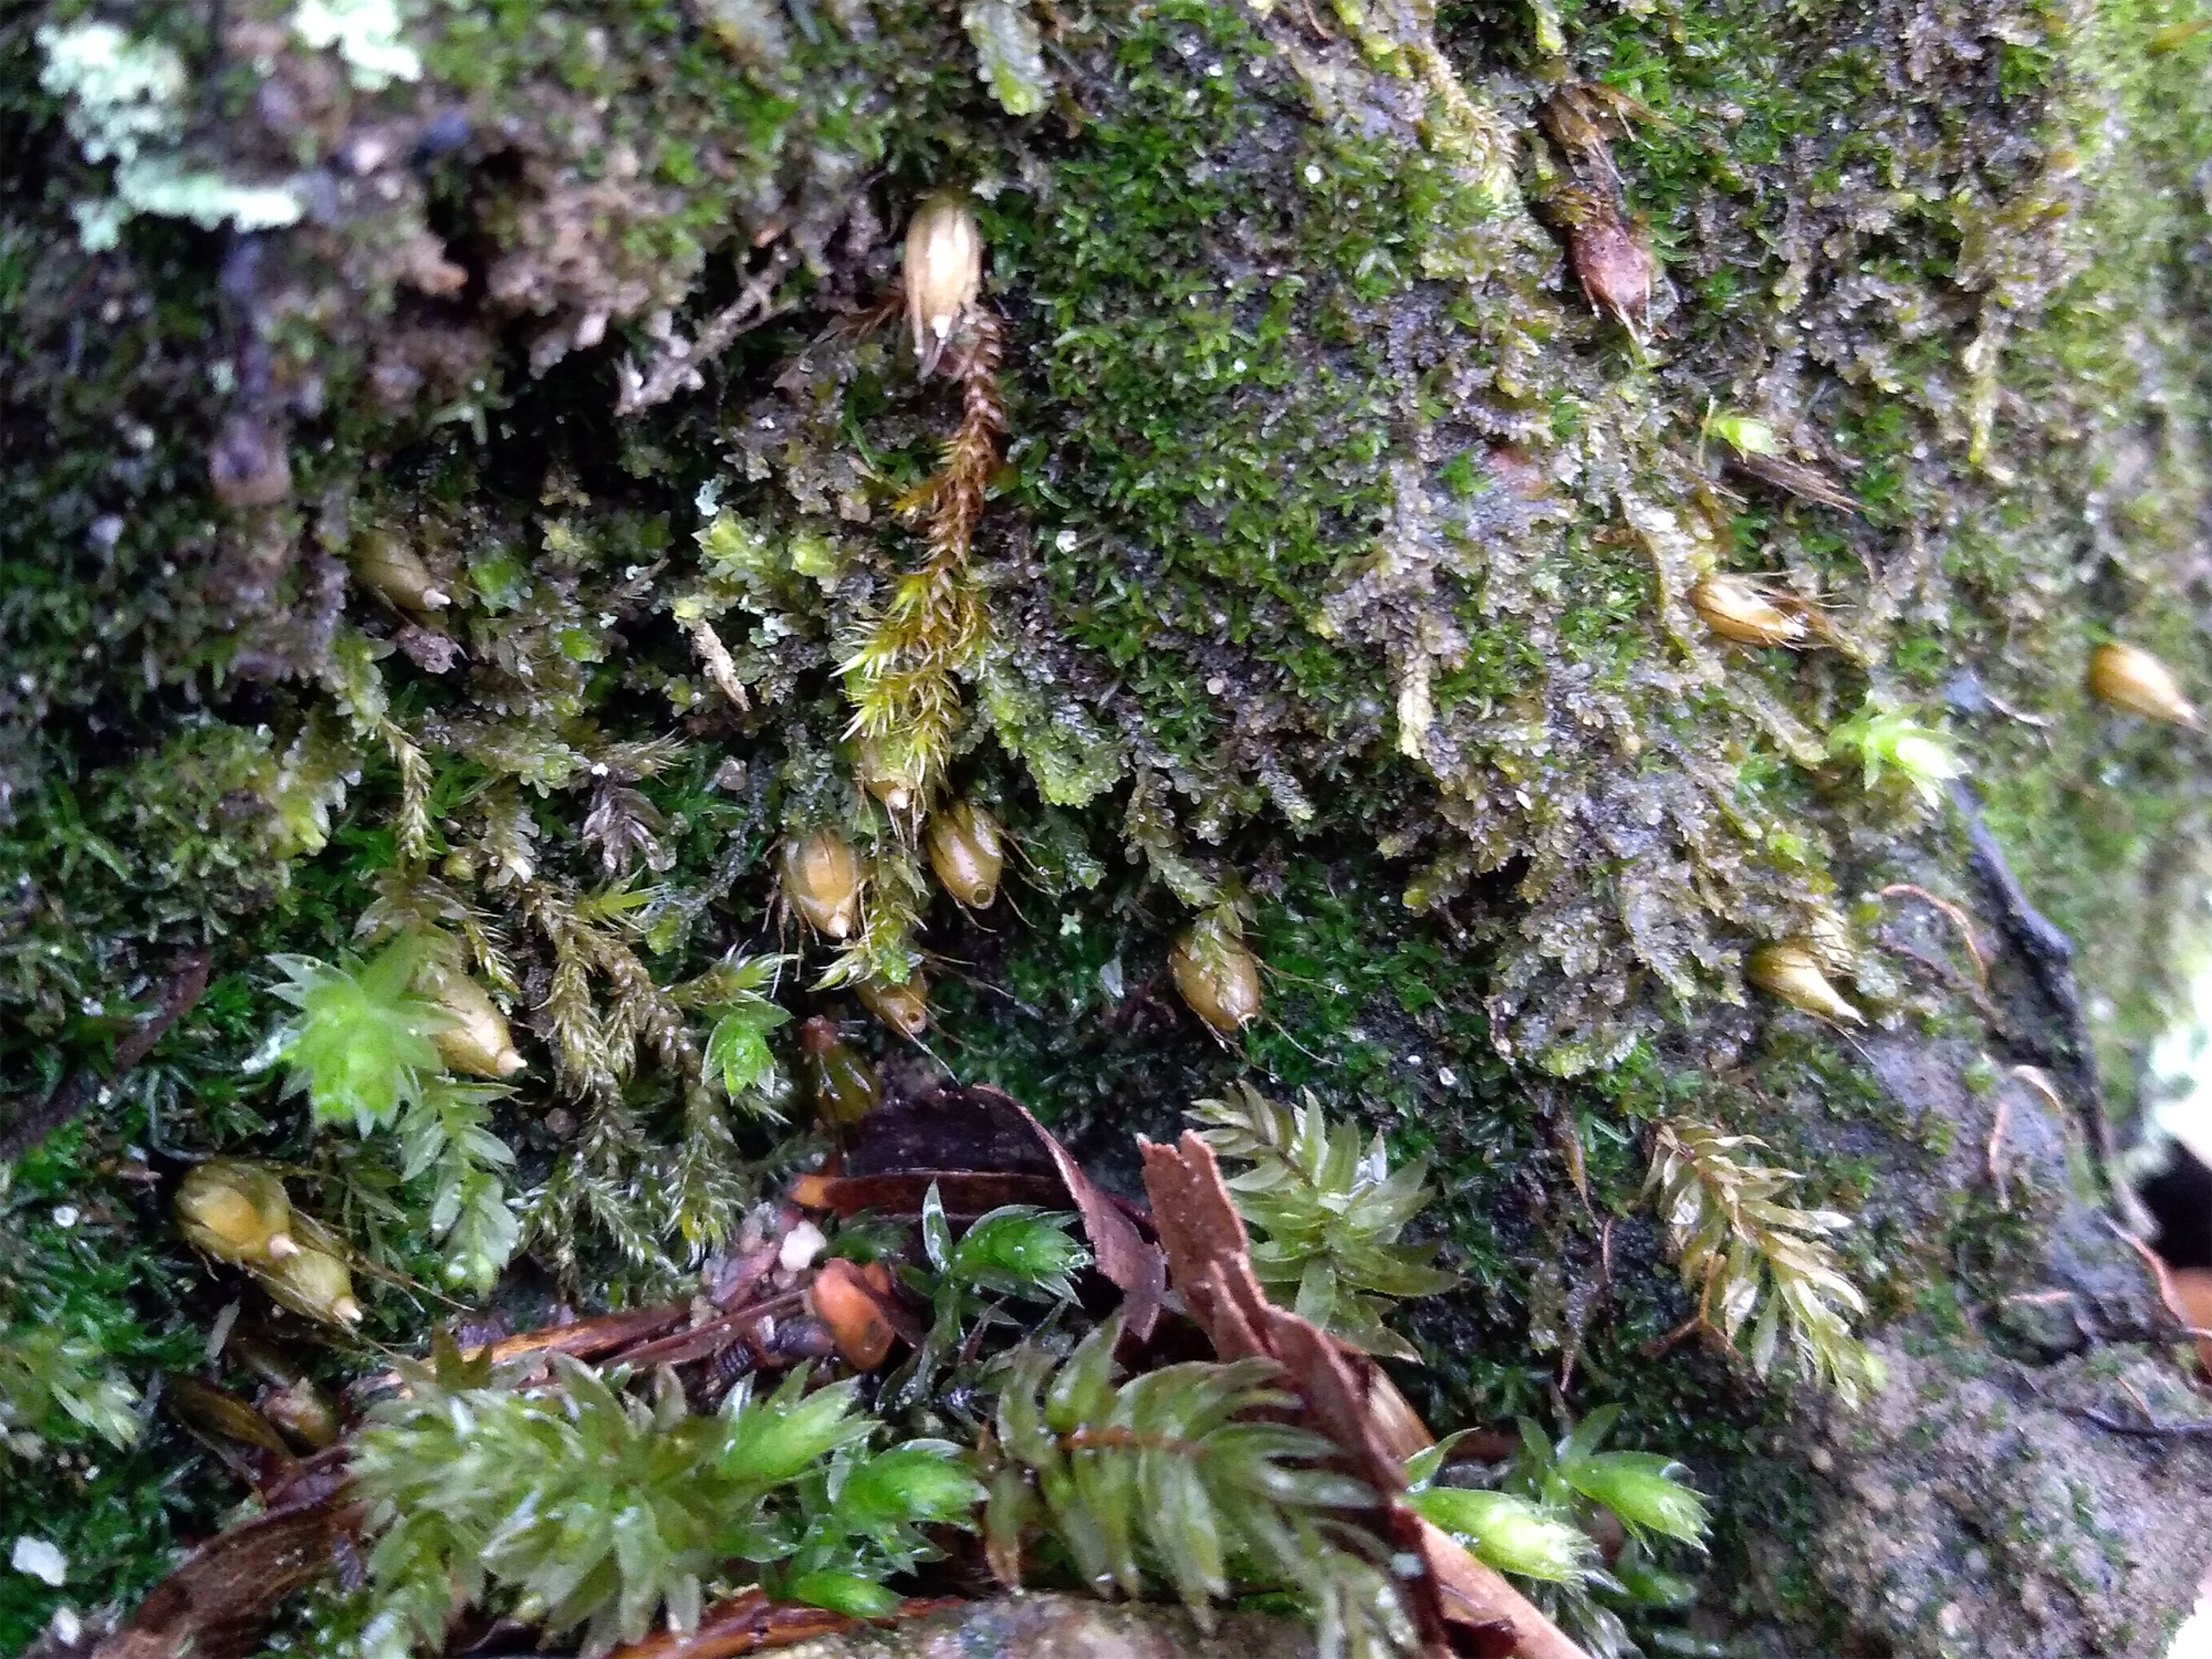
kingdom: Plantae
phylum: Bryophyta
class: Bryopsida
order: Diphysciales
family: Diphysciaceae
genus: Diphyscium
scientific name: Diphyscium foliosum
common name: Stilkløs sækkapsel
